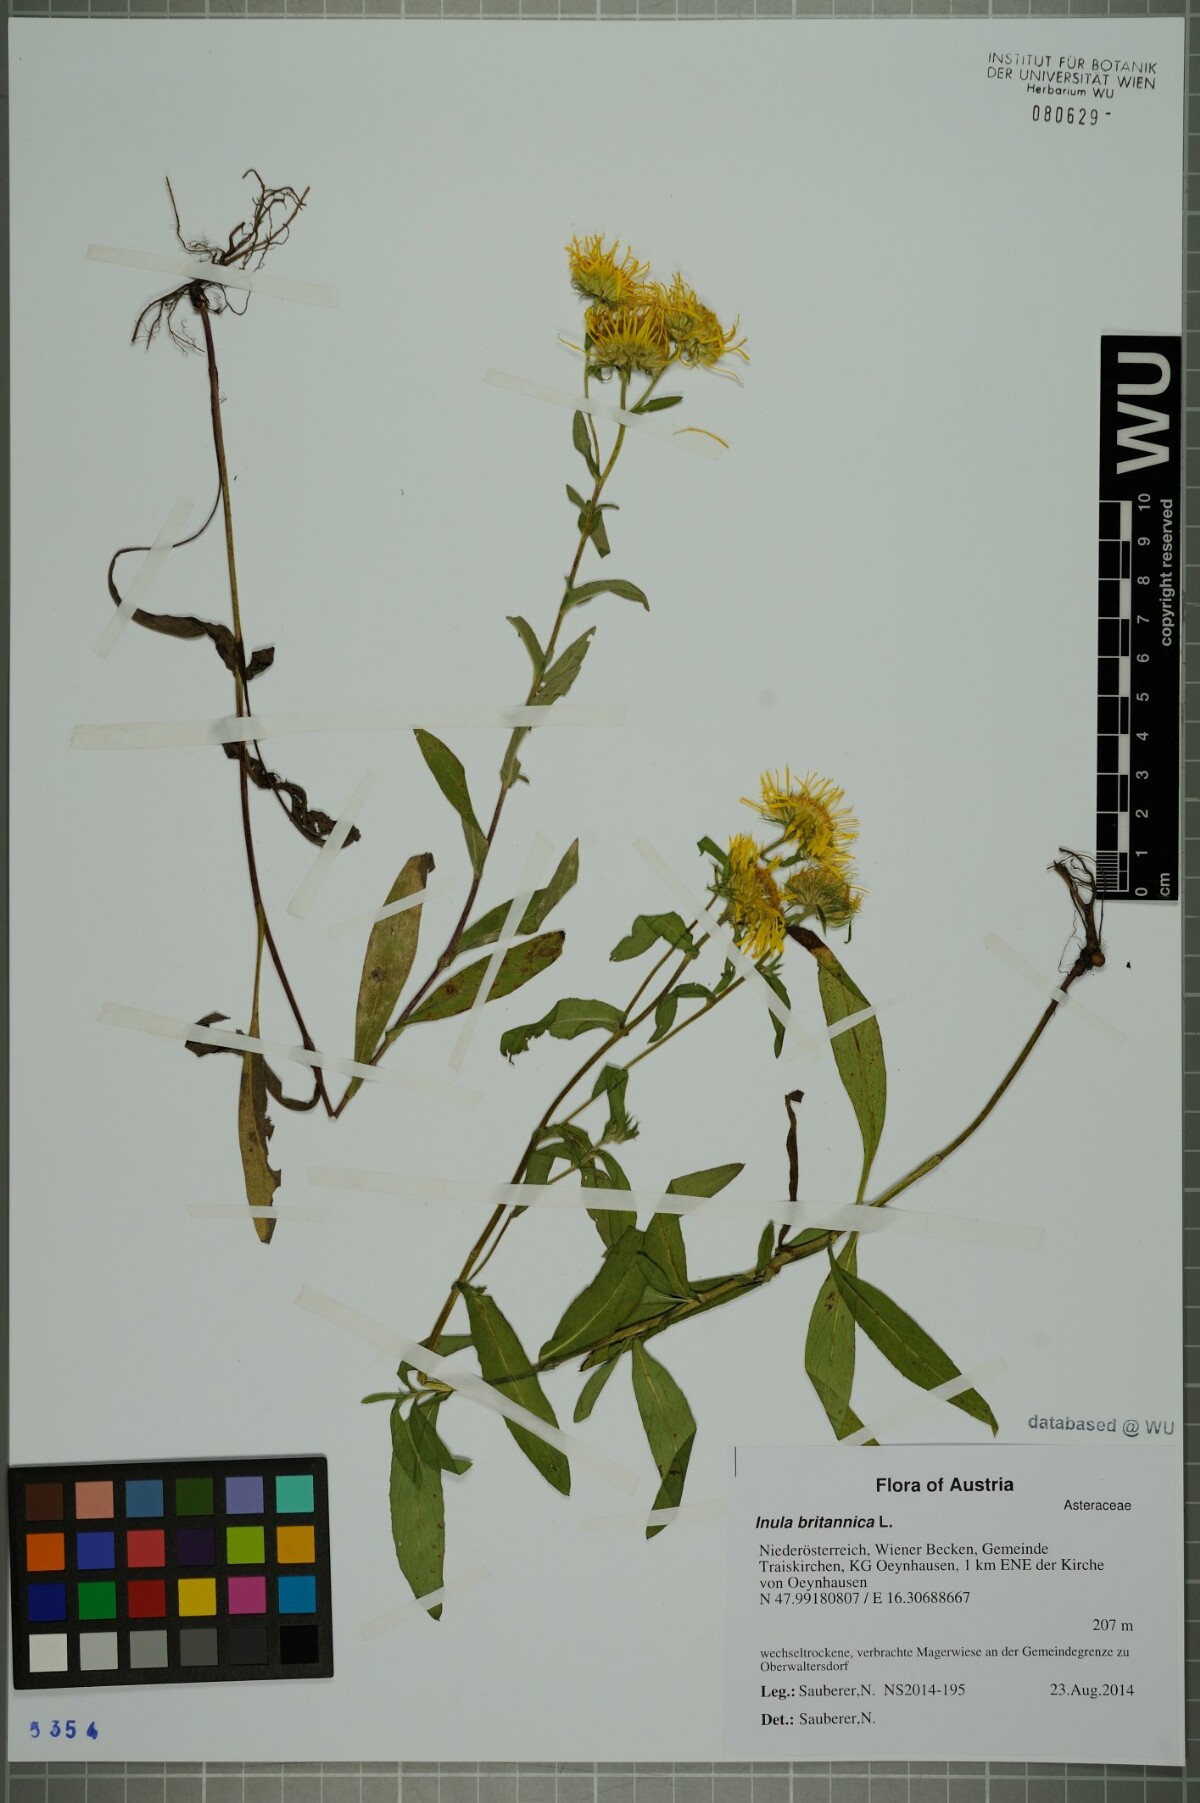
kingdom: Plantae
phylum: Tracheophyta
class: Magnoliopsida
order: Asterales
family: Asteraceae
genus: Pentanema
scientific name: Pentanema britannicum
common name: British elecampane
